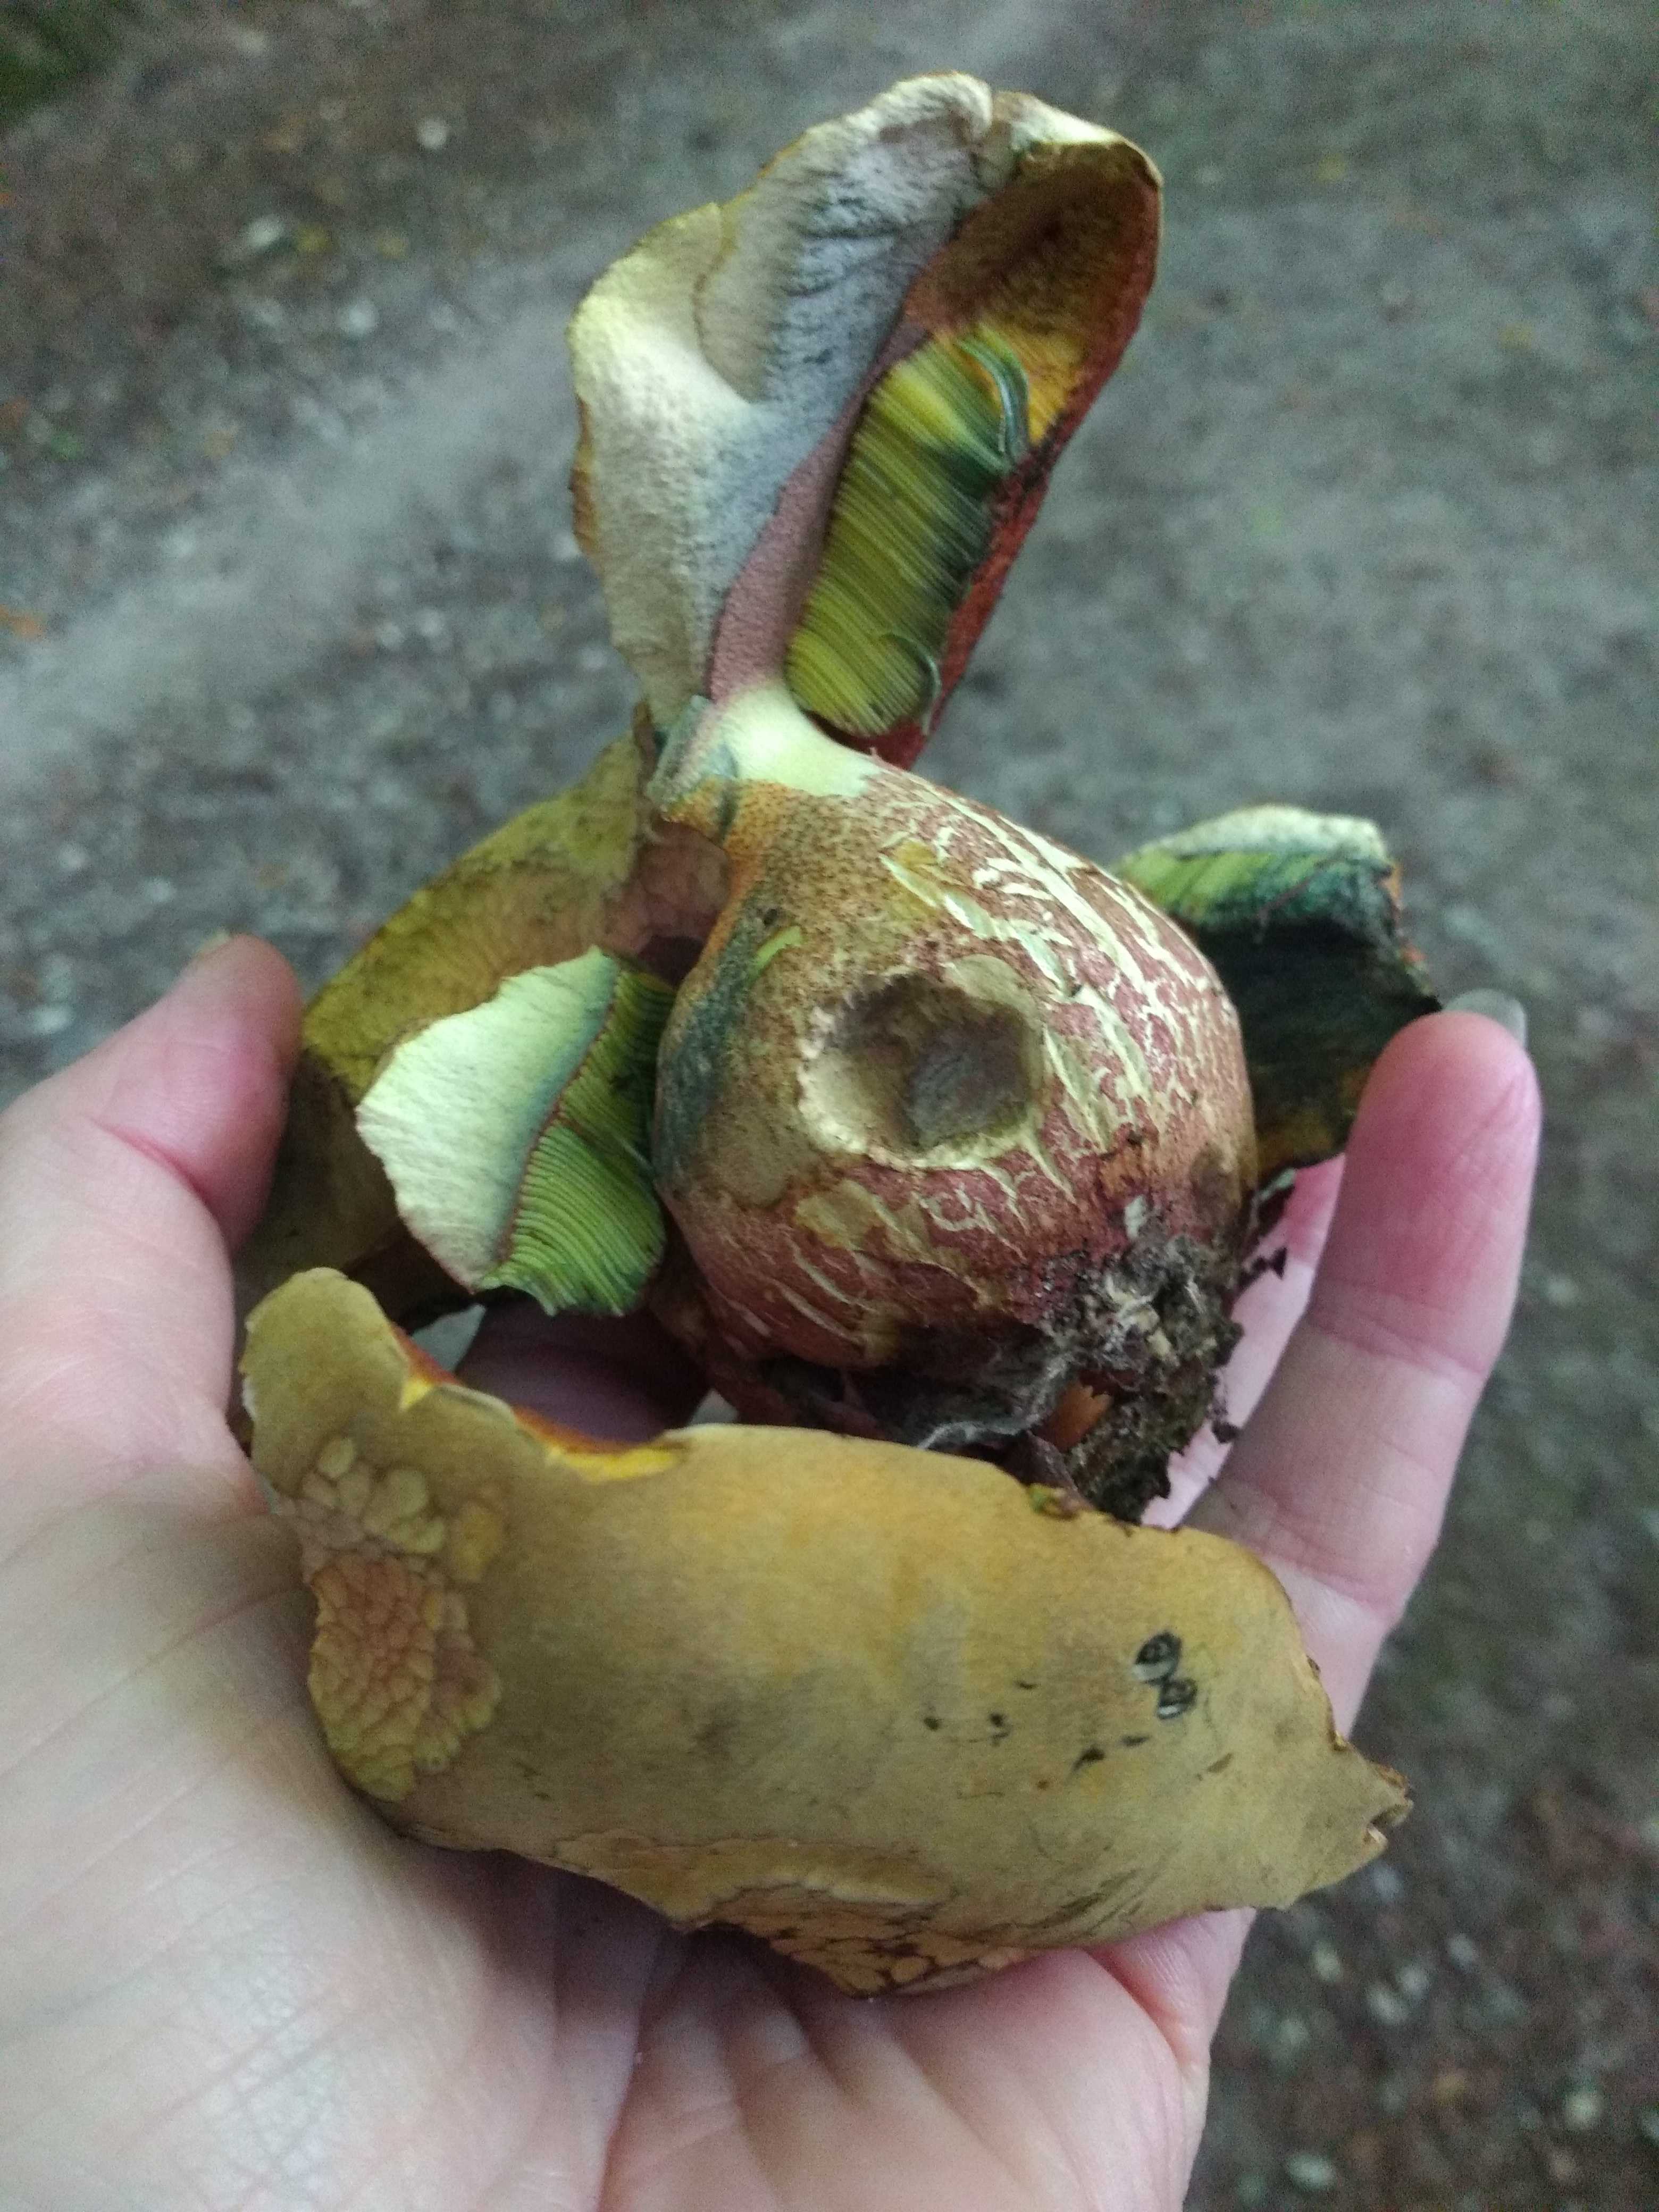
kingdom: Fungi
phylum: Basidiomycota
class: Agaricomycetes
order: Boletales
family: Boletaceae
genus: Suillellus
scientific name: Suillellus luridus
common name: netstokket indigorørhat
